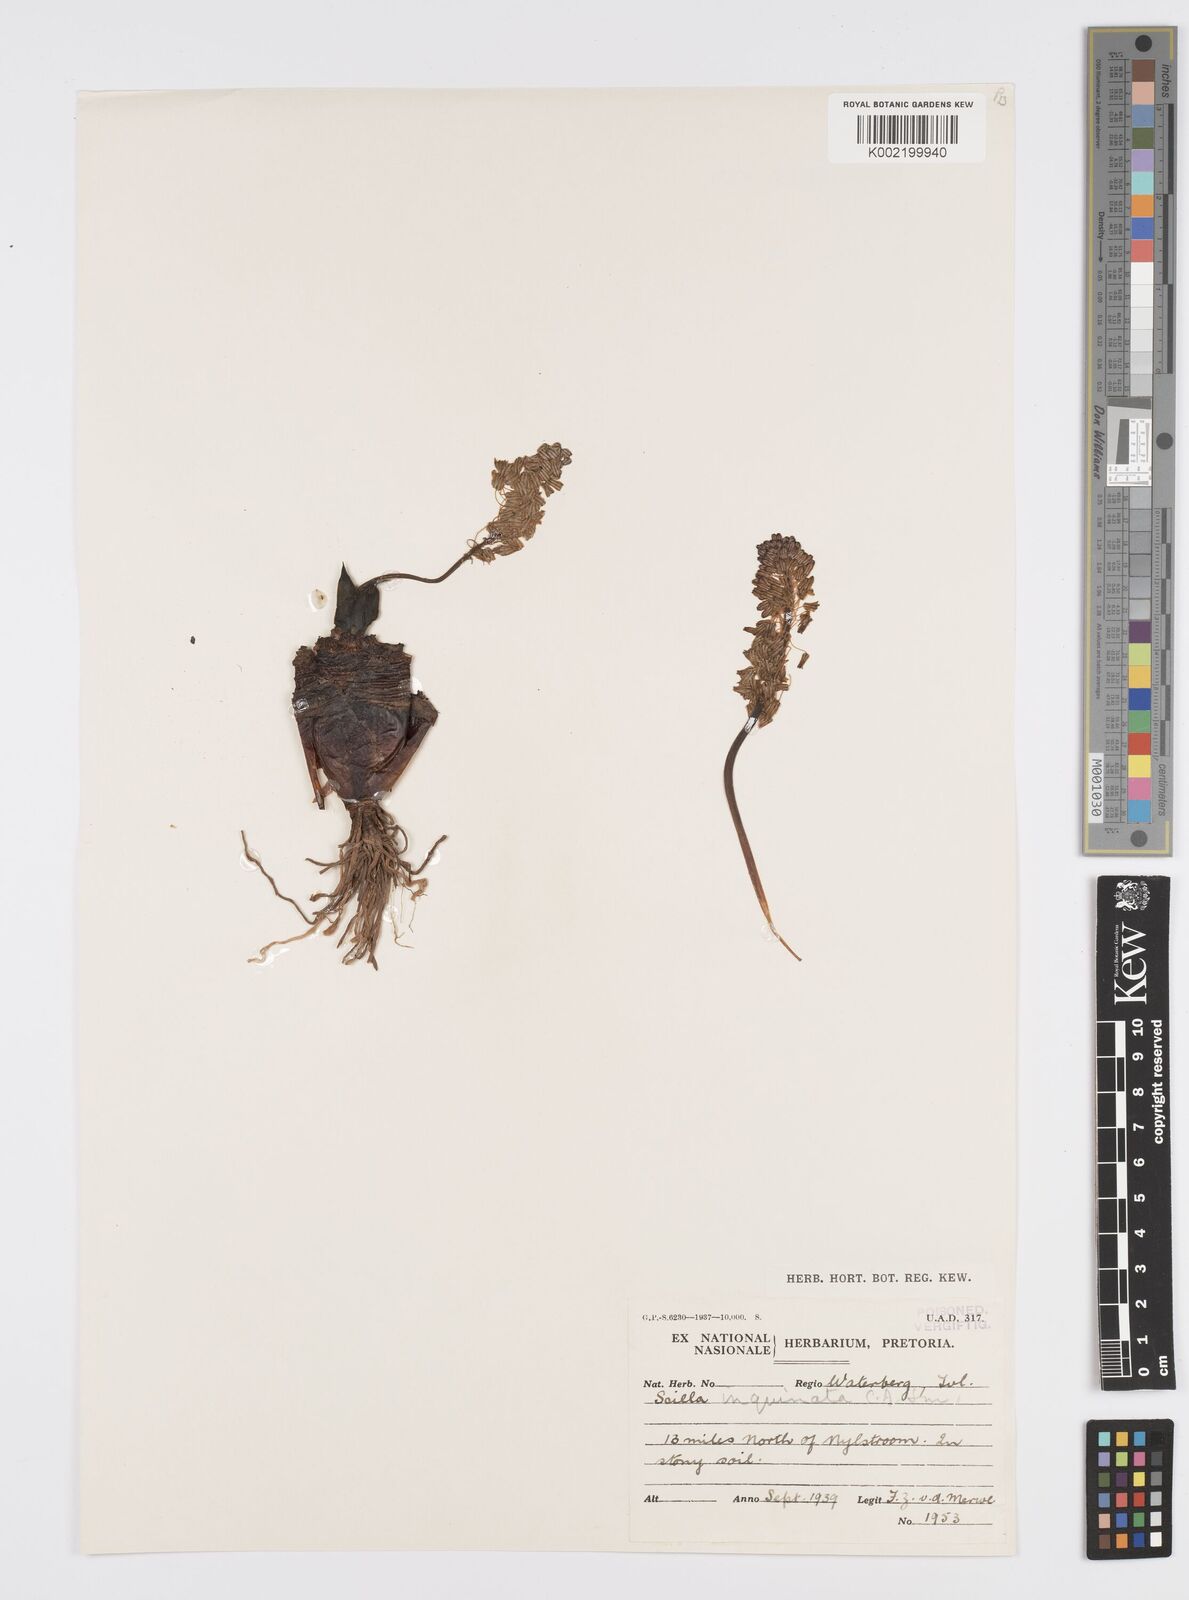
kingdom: Plantae
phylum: Tracheophyta
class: Liliopsida
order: Asparagales
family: Asparagaceae
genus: Ledebouria
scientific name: Ledebouria inquinata
